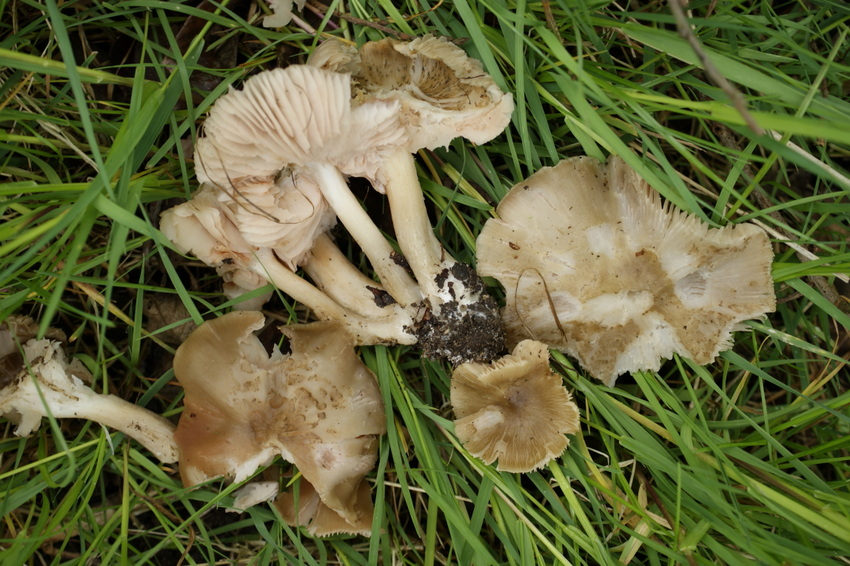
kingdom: Fungi
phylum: Basidiomycota
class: Agaricomycetes
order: Agaricales
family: Entolomataceae
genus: Entoloma
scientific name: Entoloma clypeatum
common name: flammet rødblad
